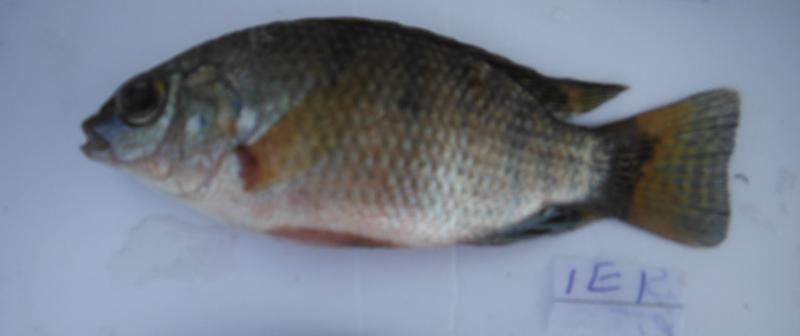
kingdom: Animalia
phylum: Chordata
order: Perciformes
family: Cichlidae
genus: Oreochromis
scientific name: Oreochromis urolepis
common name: Wami tilapia
